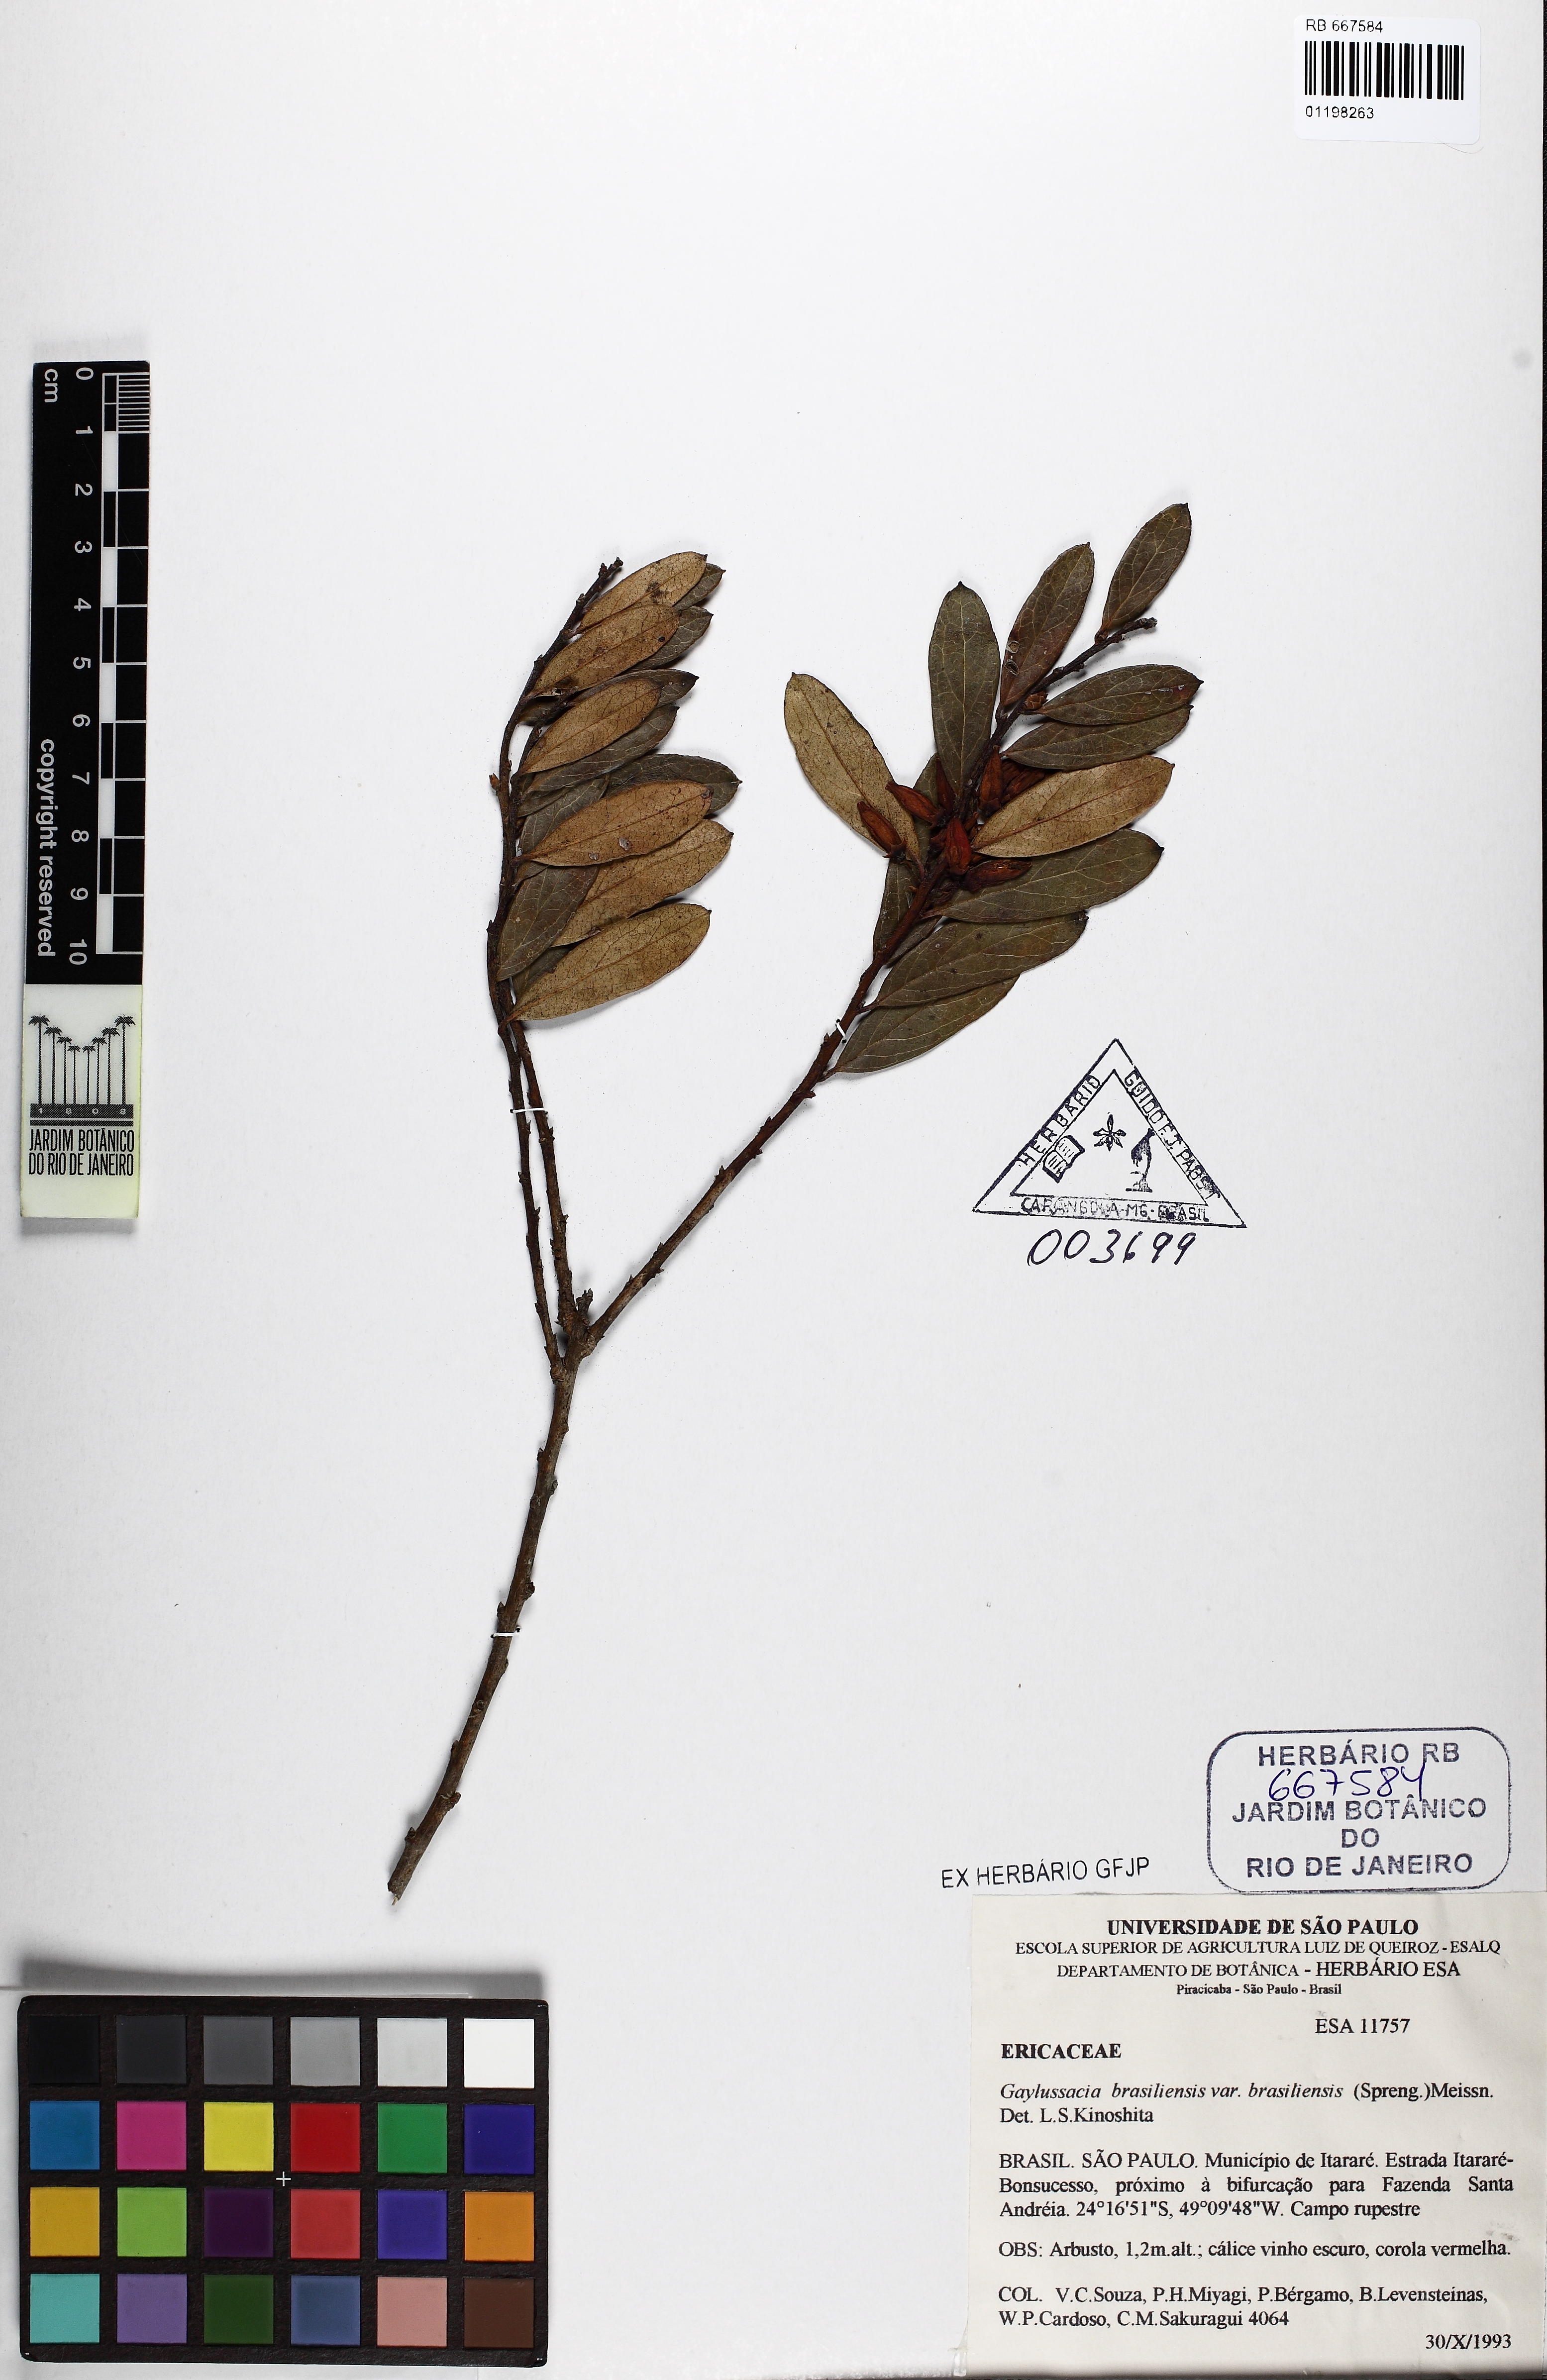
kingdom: Plantae
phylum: Tracheophyta
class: Magnoliopsida
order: Ericales
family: Ericaceae
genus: Gaylussacia
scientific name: Gaylussacia brasiliensis
